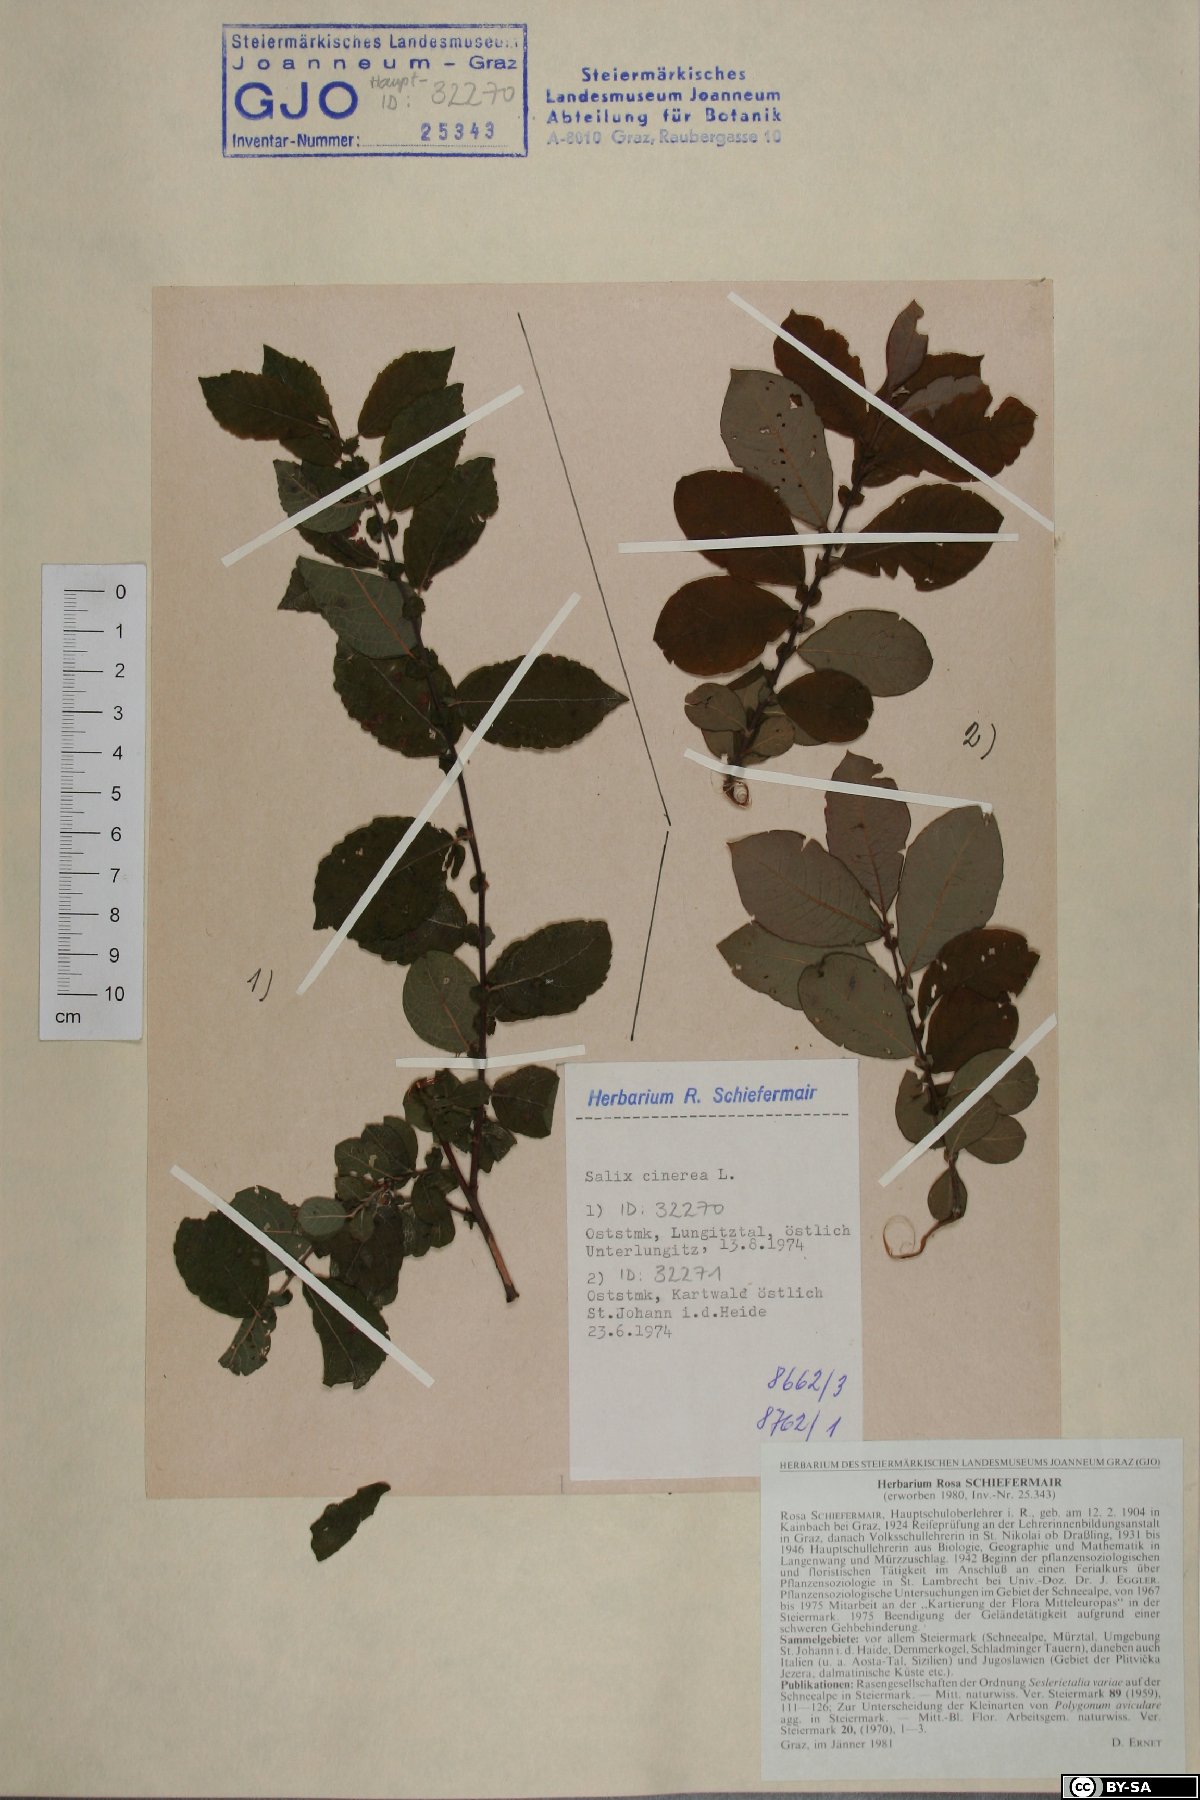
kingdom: Plantae
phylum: Tracheophyta
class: Magnoliopsida
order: Malpighiales
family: Salicaceae
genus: Salix
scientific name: Salix cinerea
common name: Common sallow
